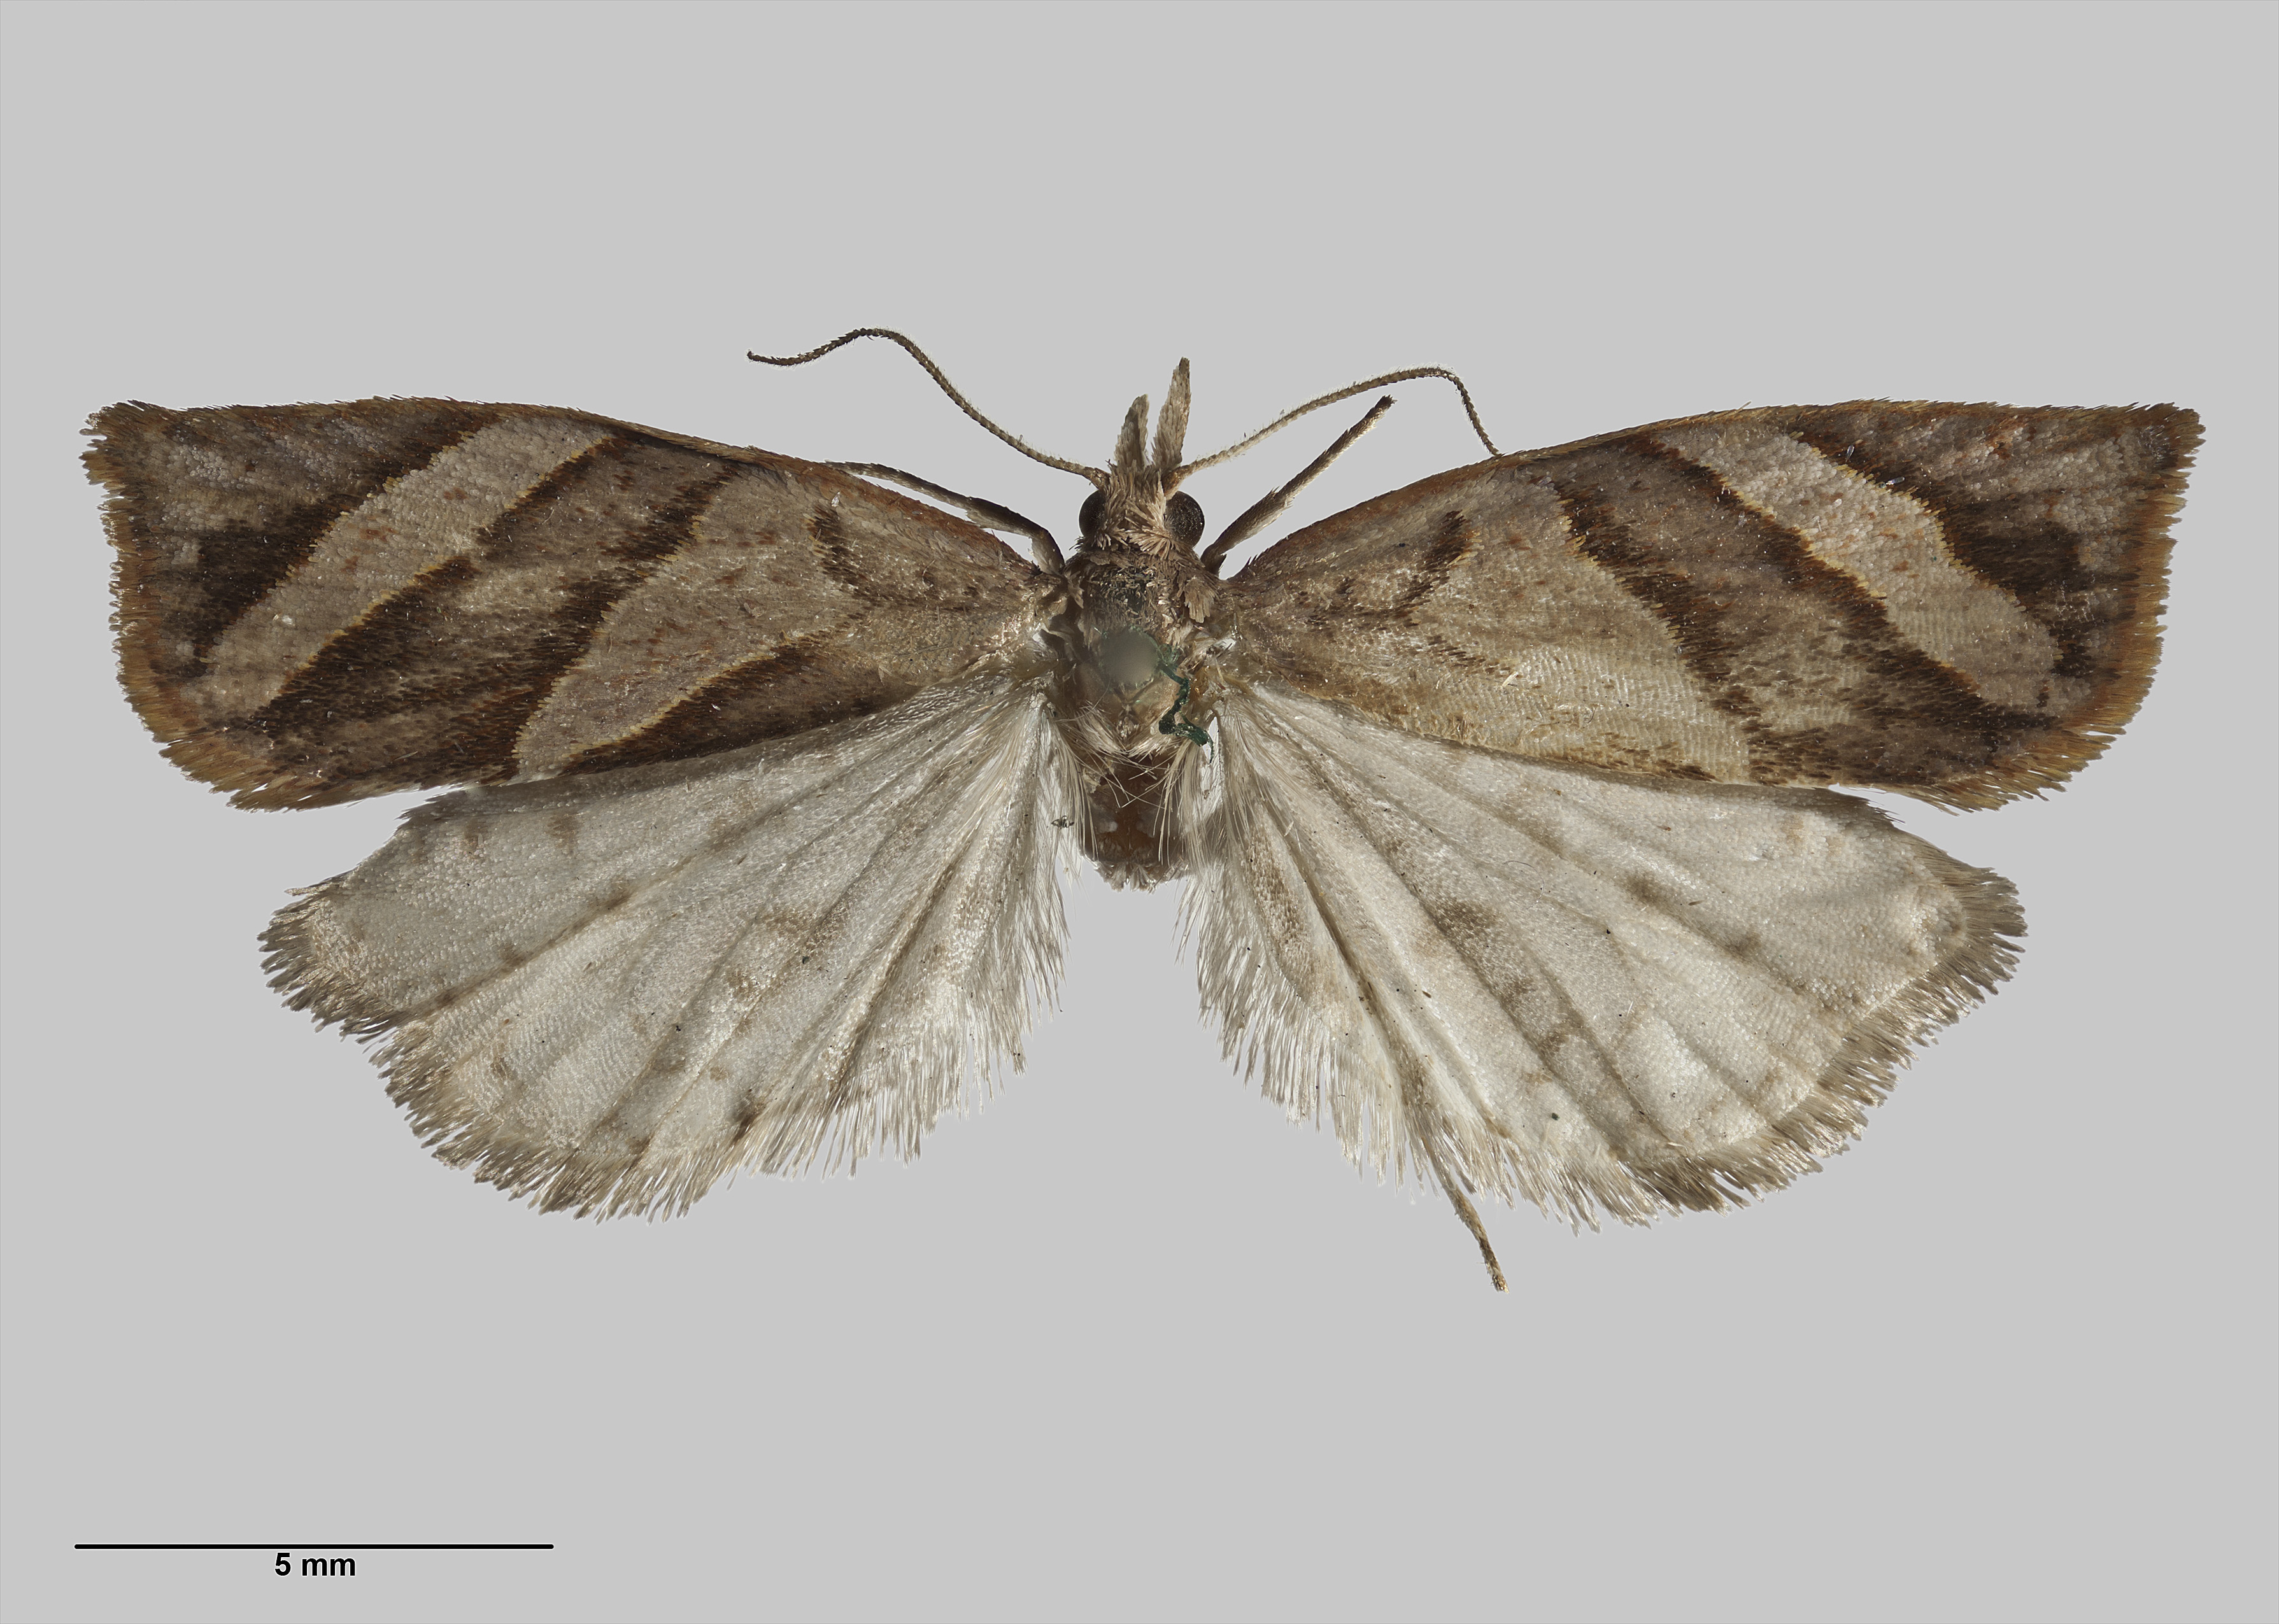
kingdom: Animalia
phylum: Arthropoda
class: Insecta
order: Lepidoptera
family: Tortricidae
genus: Apoctena
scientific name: Apoctena clarkei
